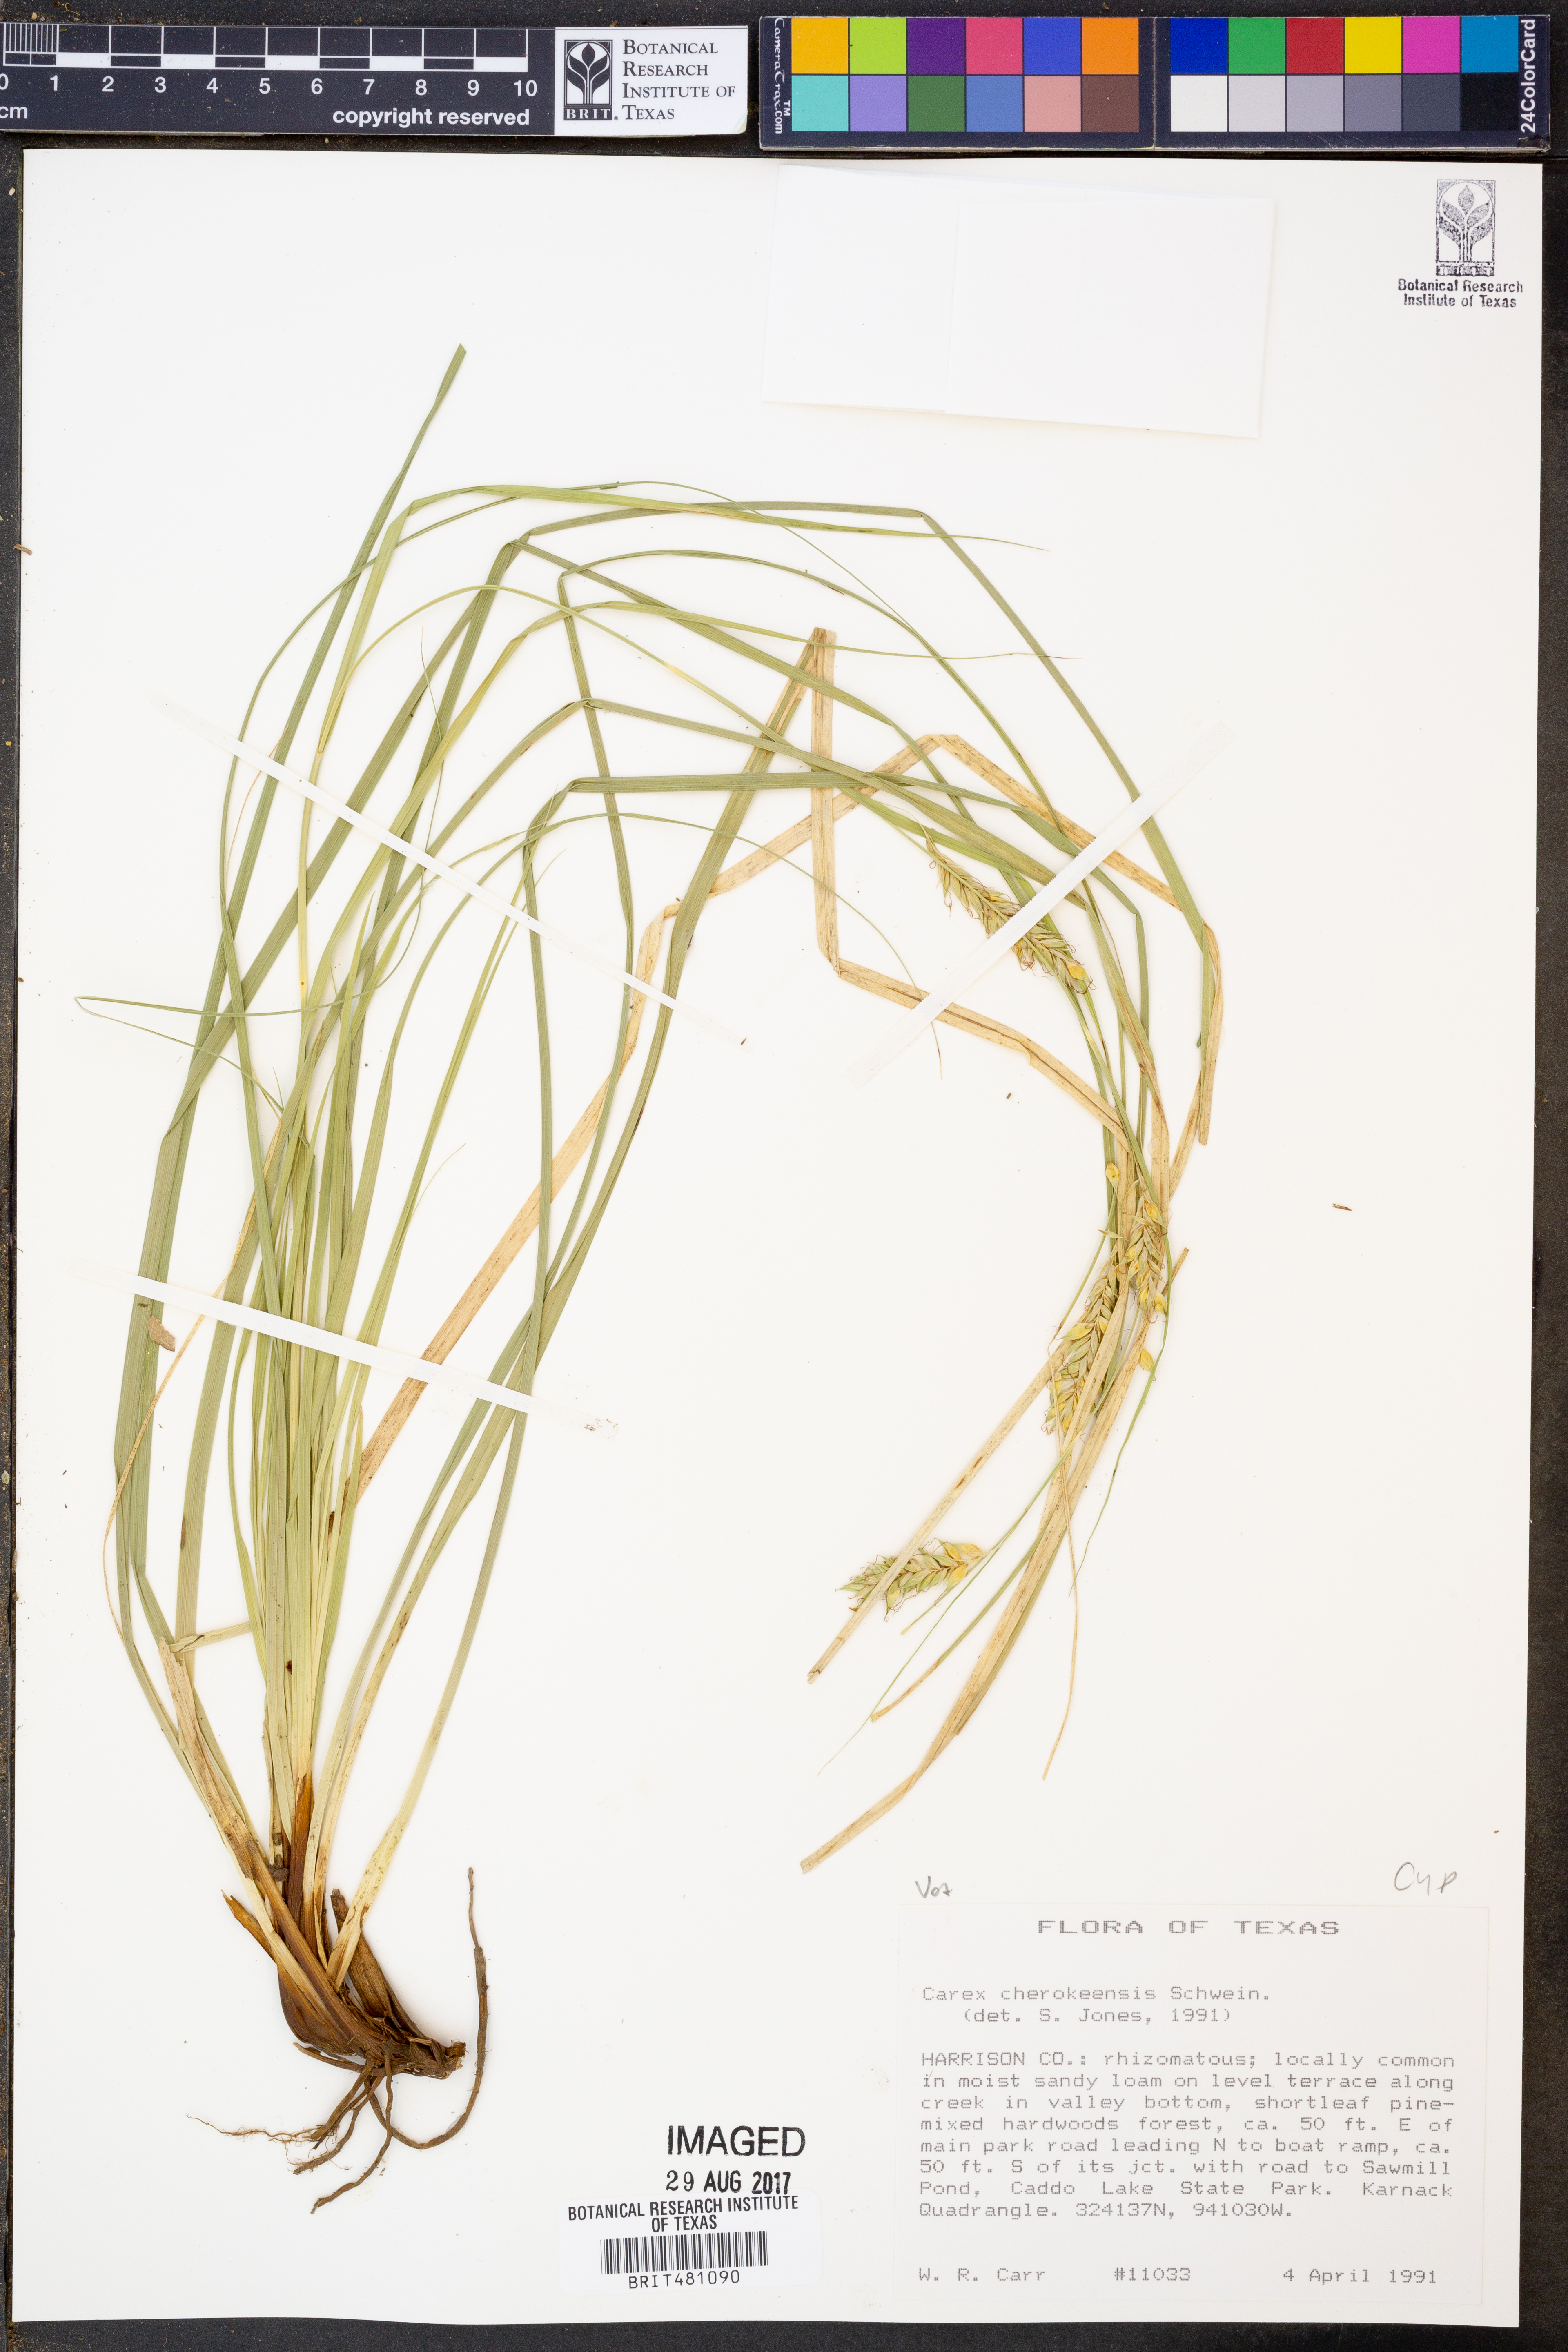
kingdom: Plantae
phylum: Tracheophyta
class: Liliopsida
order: Poales
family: Cyperaceae
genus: Carex
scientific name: Carex cherokeensis
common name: Cherokee sedge
